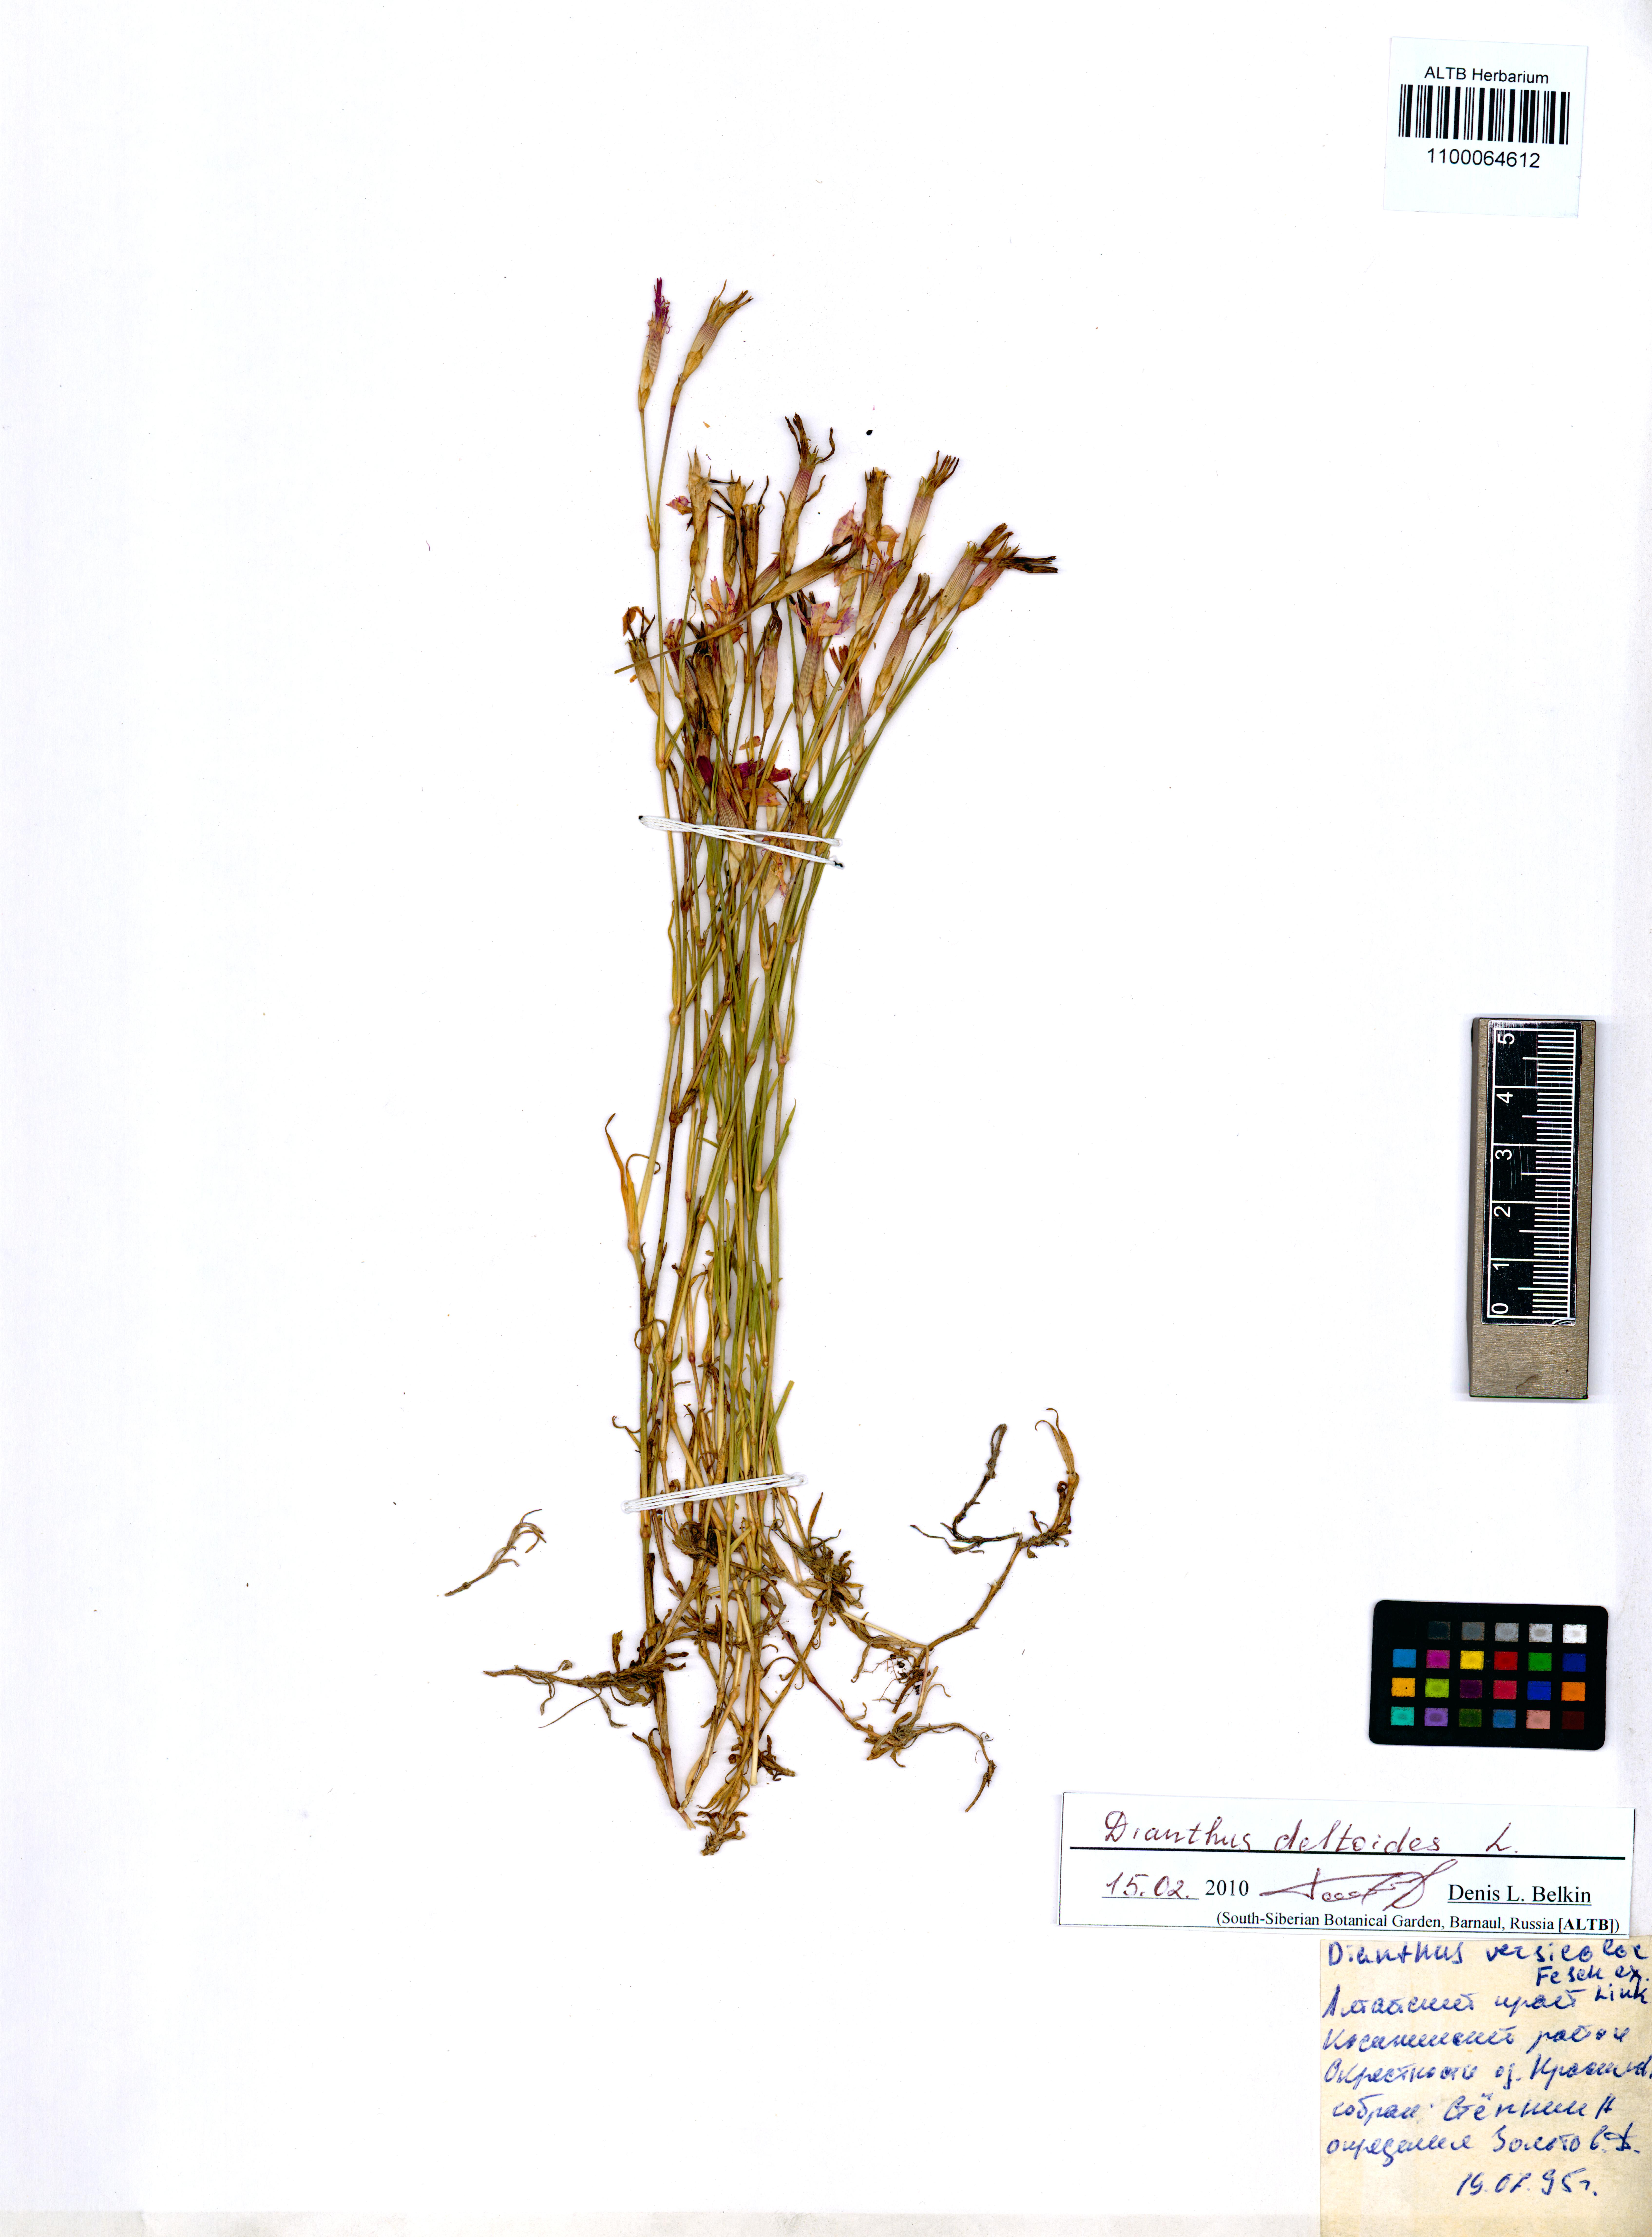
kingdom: Plantae
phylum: Tracheophyta
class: Magnoliopsida
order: Caryophyllales
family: Caryophyllaceae
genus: Dianthus
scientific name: Dianthus deltoides
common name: Maiden pink
